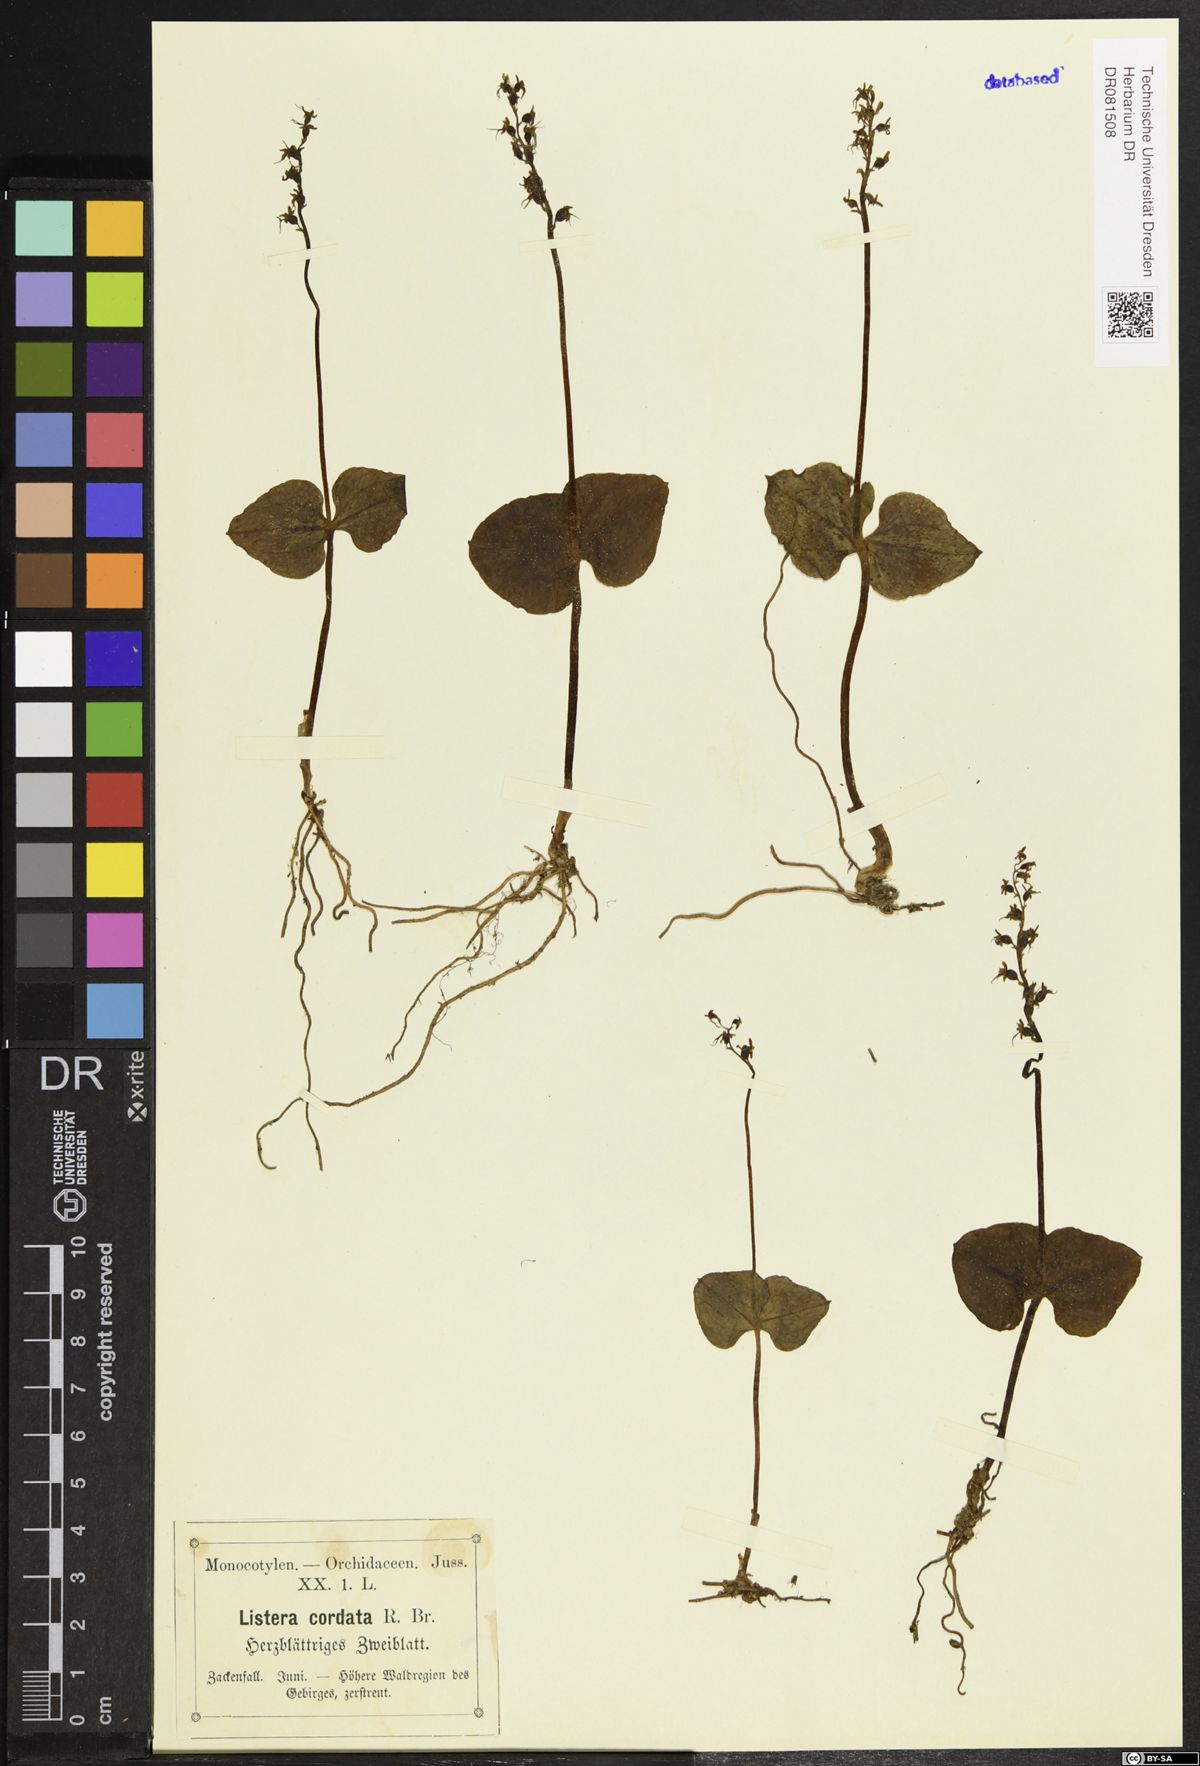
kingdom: Plantae
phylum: Tracheophyta
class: Liliopsida
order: Asparagales
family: Orchidaceae
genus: Neottia
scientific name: Neottia cordata
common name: Lesser twayblade
